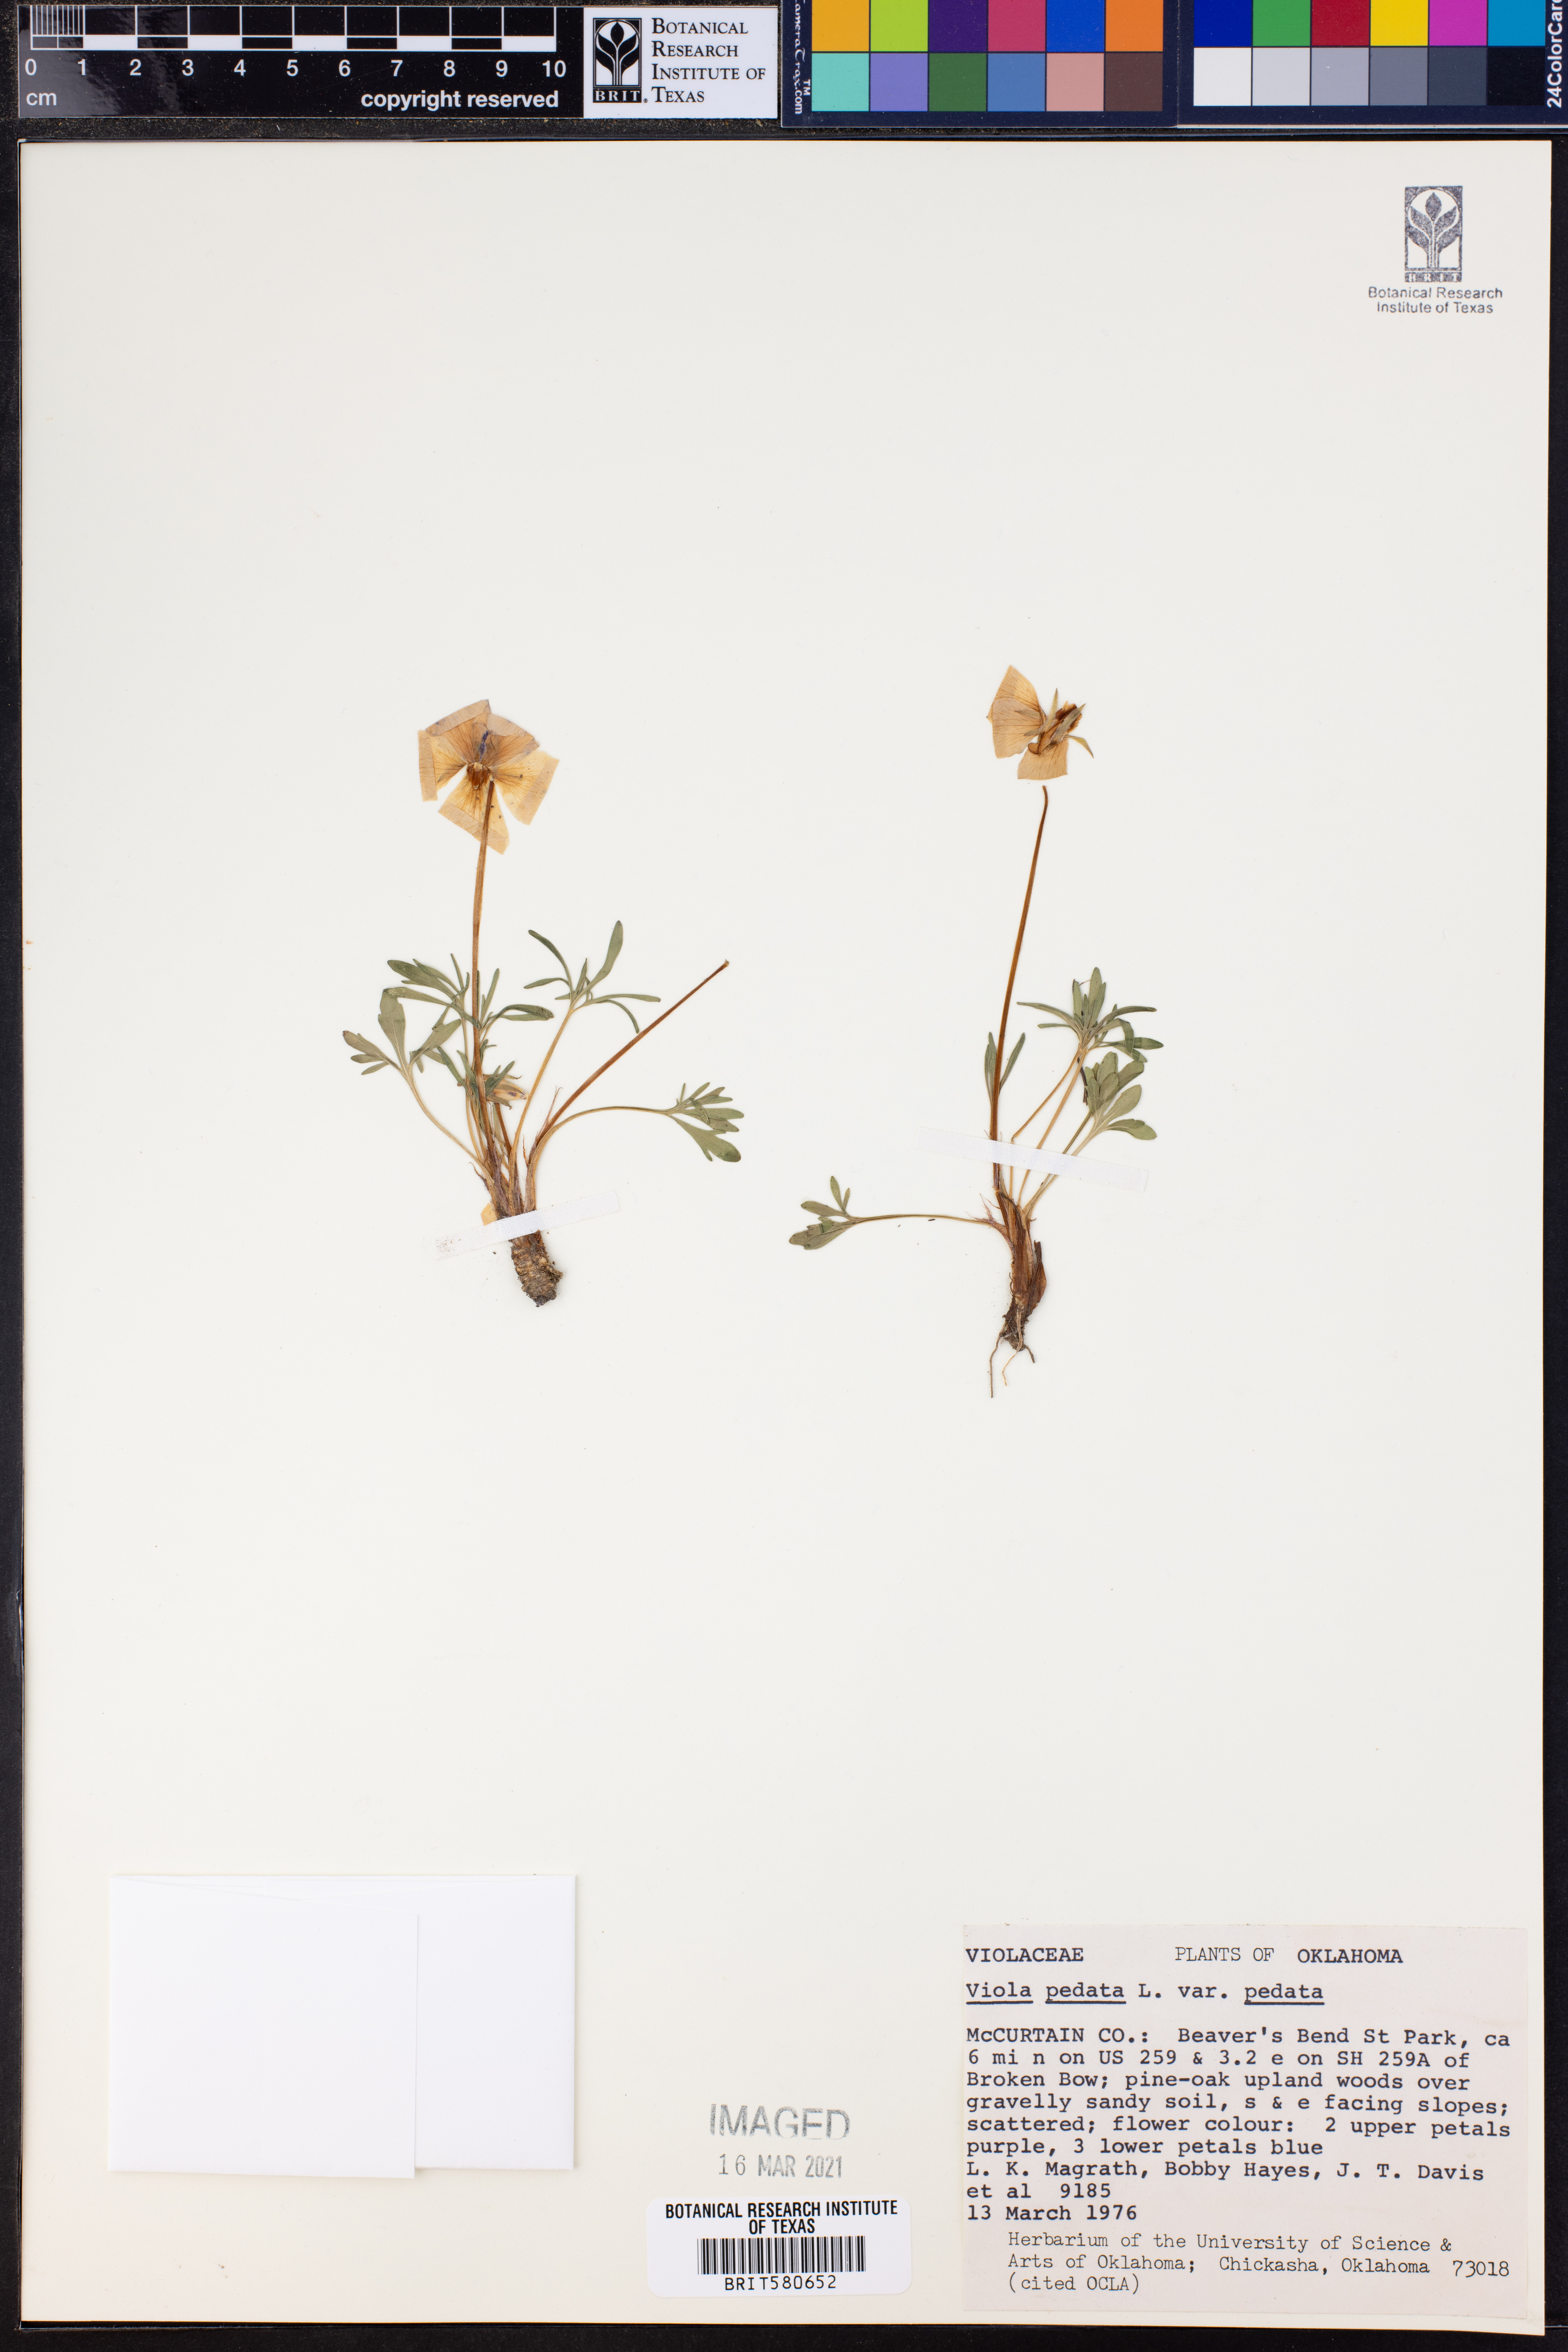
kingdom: Plantae
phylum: Tracheophyta
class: Magnoliopsida
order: Malpighiales
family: Violaceae
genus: Viola
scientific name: Viola pedata
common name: Pansy violet
